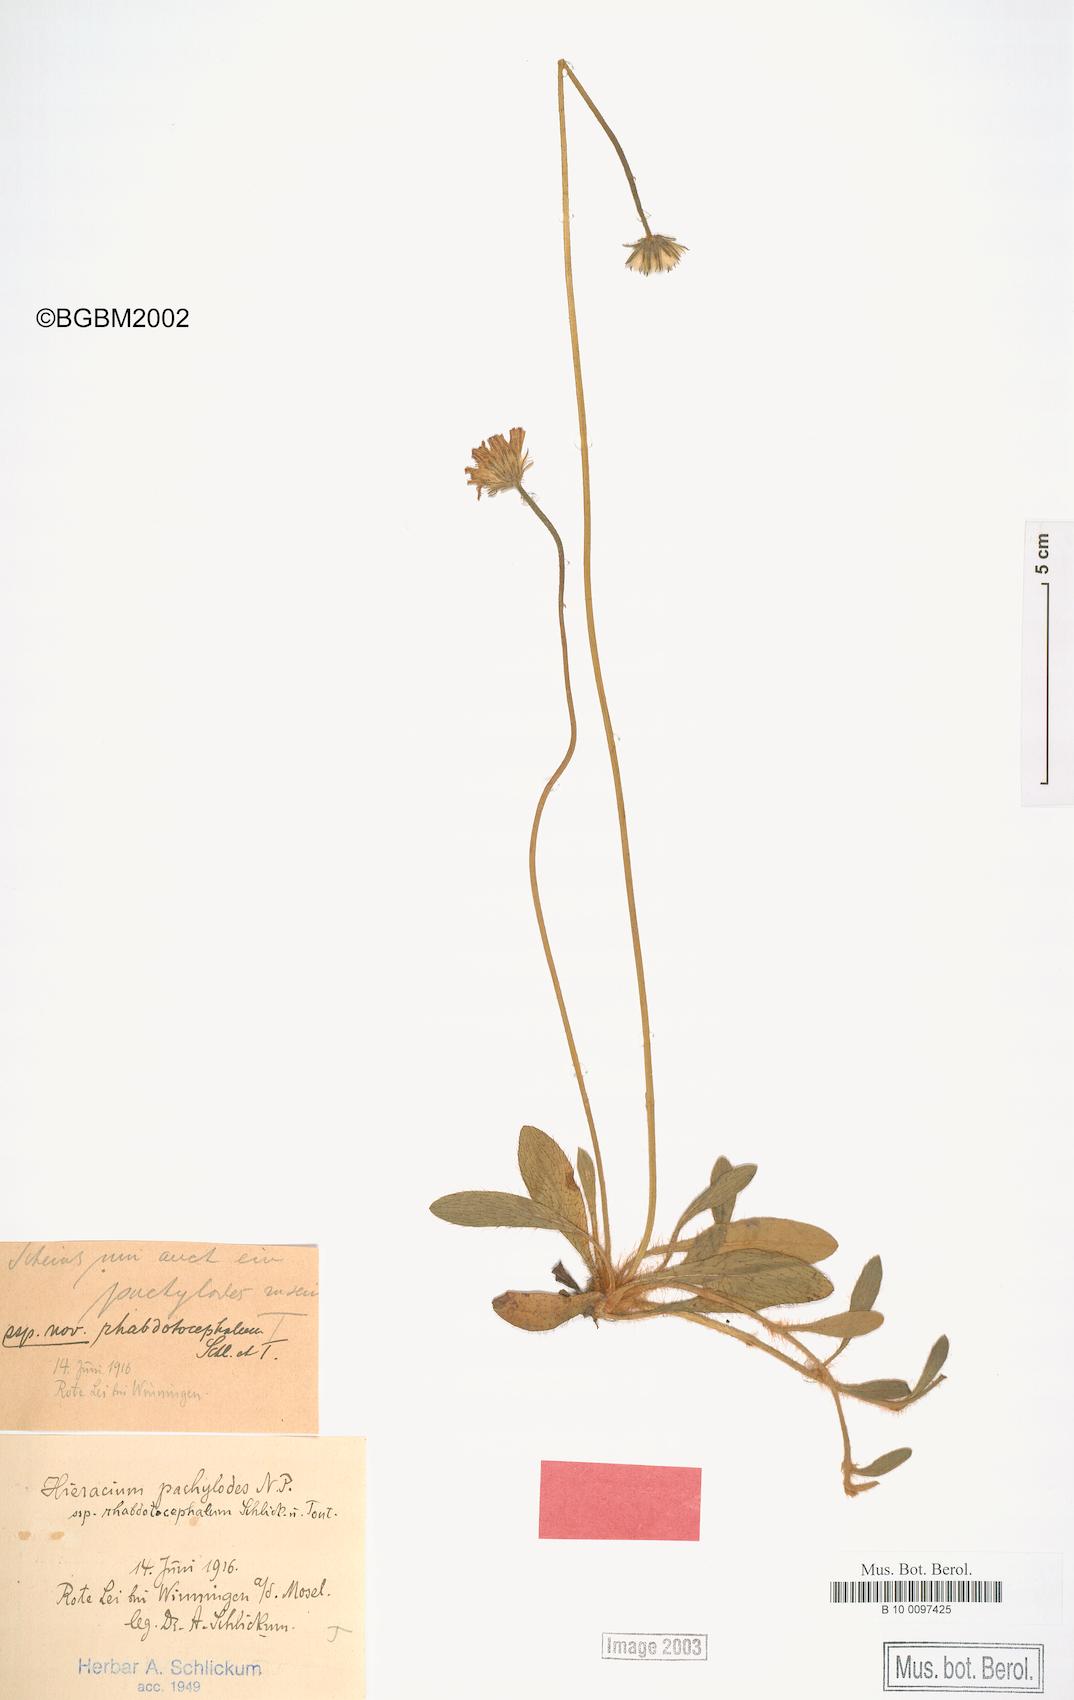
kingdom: Plantae
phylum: Tracheophyta
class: Magnoliopsida
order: Asterales
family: Asteraceae
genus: Pilosella
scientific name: Pilosella longisquama
